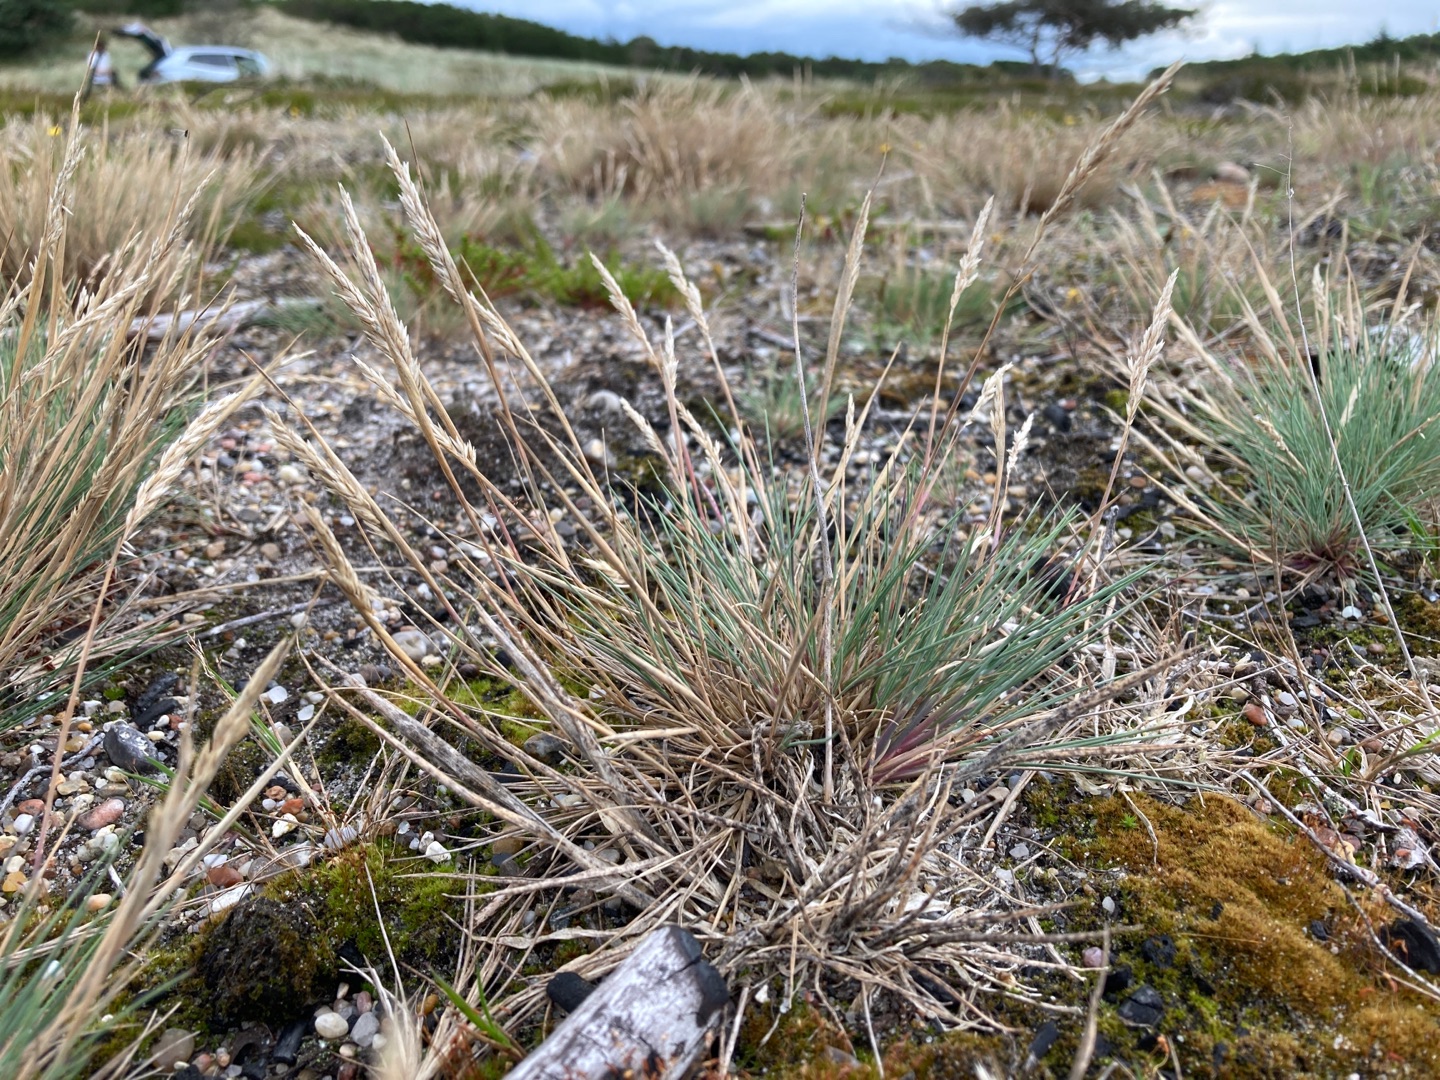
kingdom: Plantae
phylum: Tracheophyta
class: Liliopsida
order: Poales
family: Poaceae
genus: Corynephorus
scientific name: Corynephorus canescens
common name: Sandskæg
